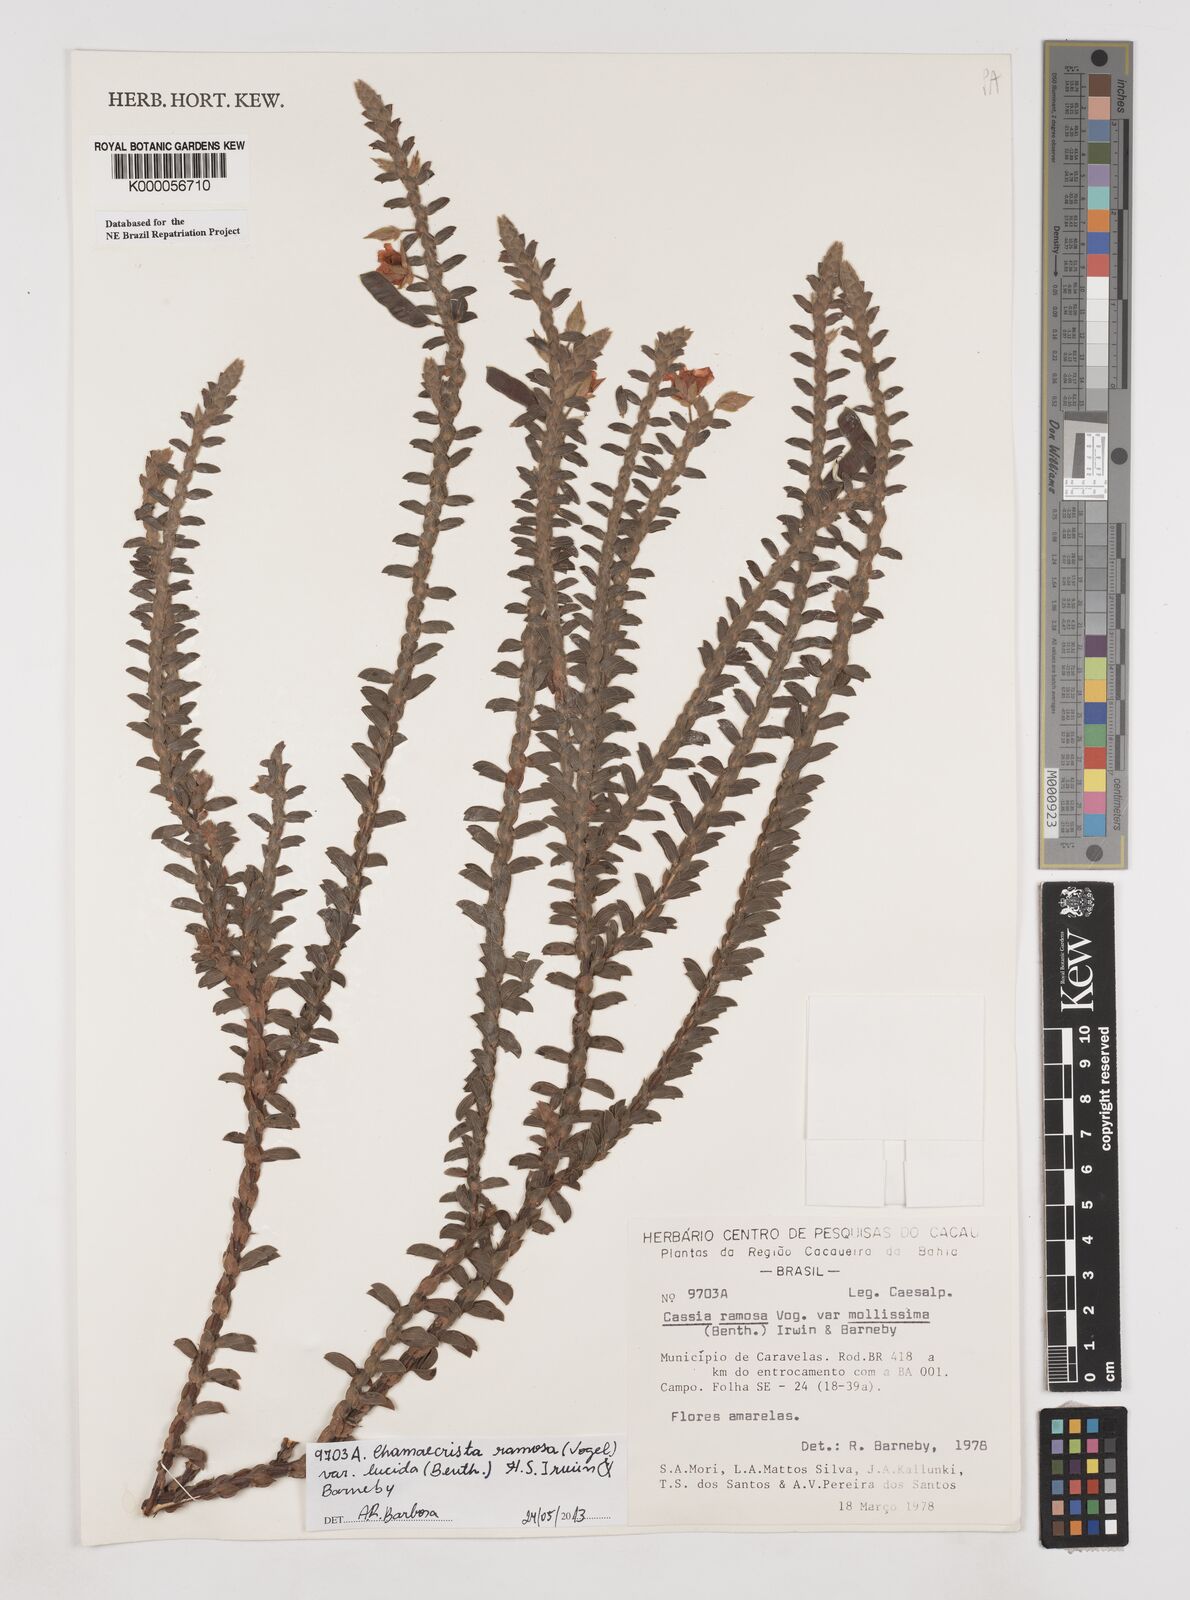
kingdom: Plantae
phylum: Tracheophyta
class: Magnoliopsida
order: Fabales
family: Fabaceae
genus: Chamaecrista
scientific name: Chamaecrista ramosa
